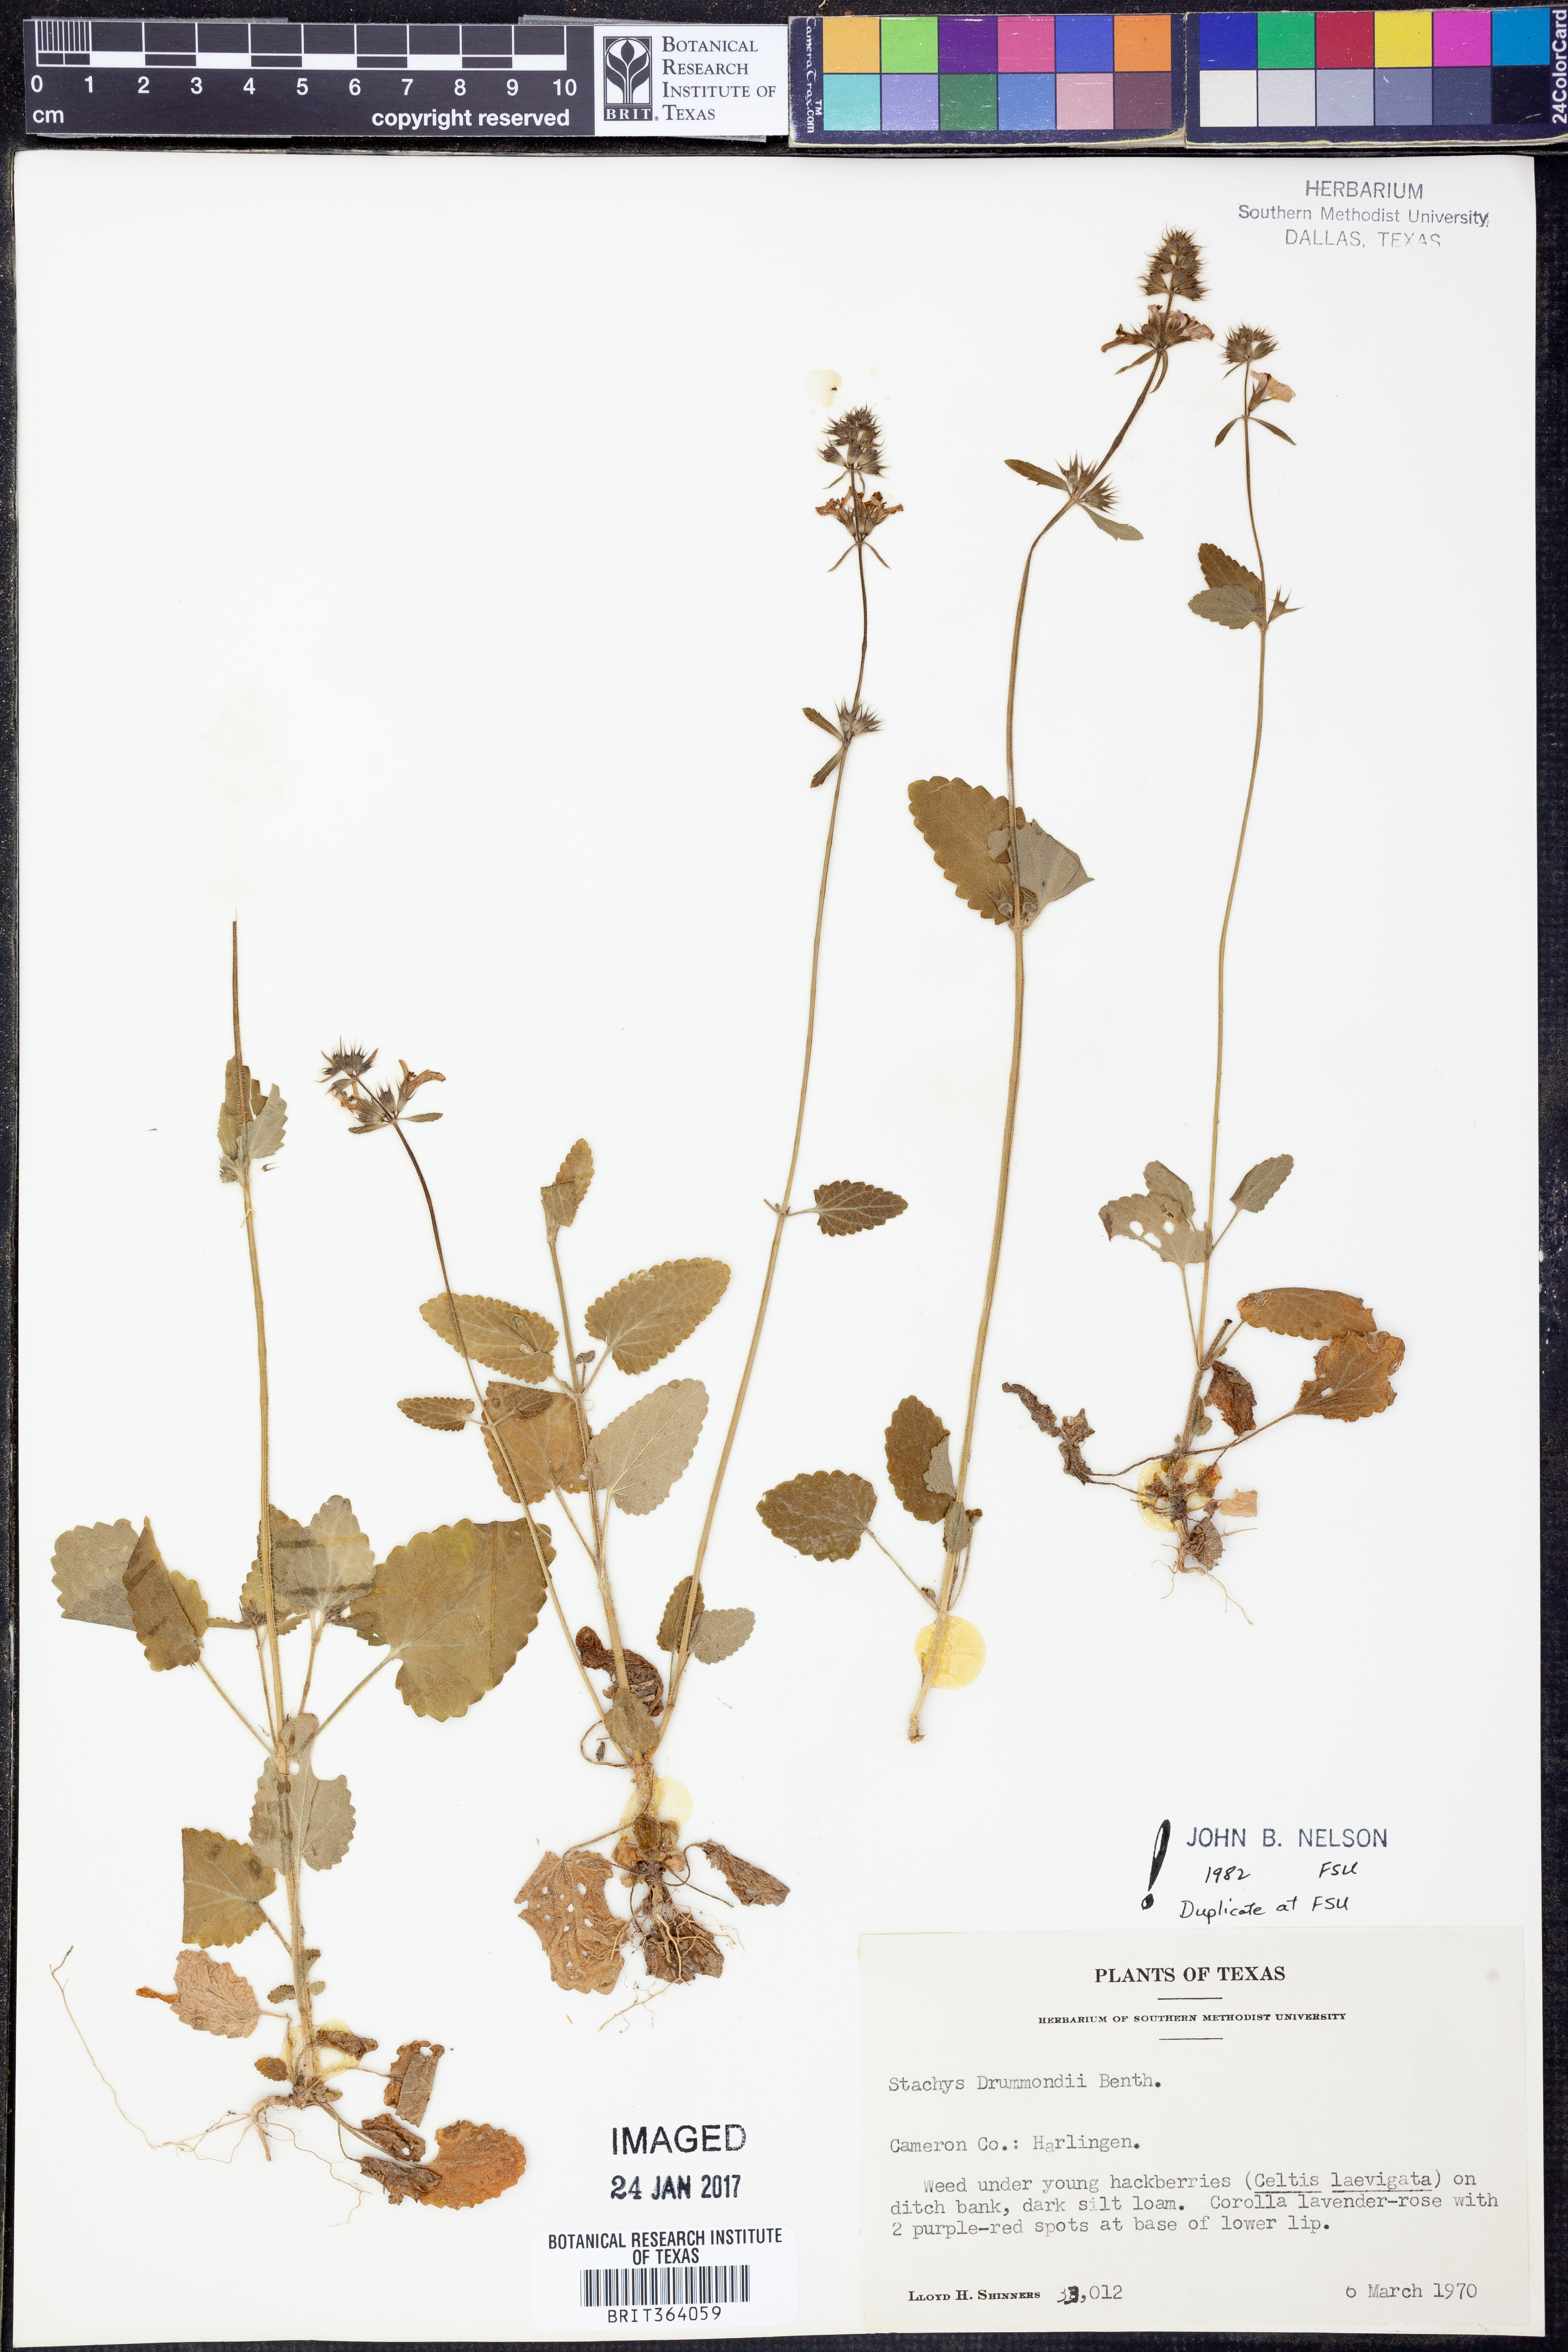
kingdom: Plantae
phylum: Tracheophyta
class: Magnoliopsida
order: Lamiales
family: Lamiaceae
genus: Stachys
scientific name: Stachys drummondii
